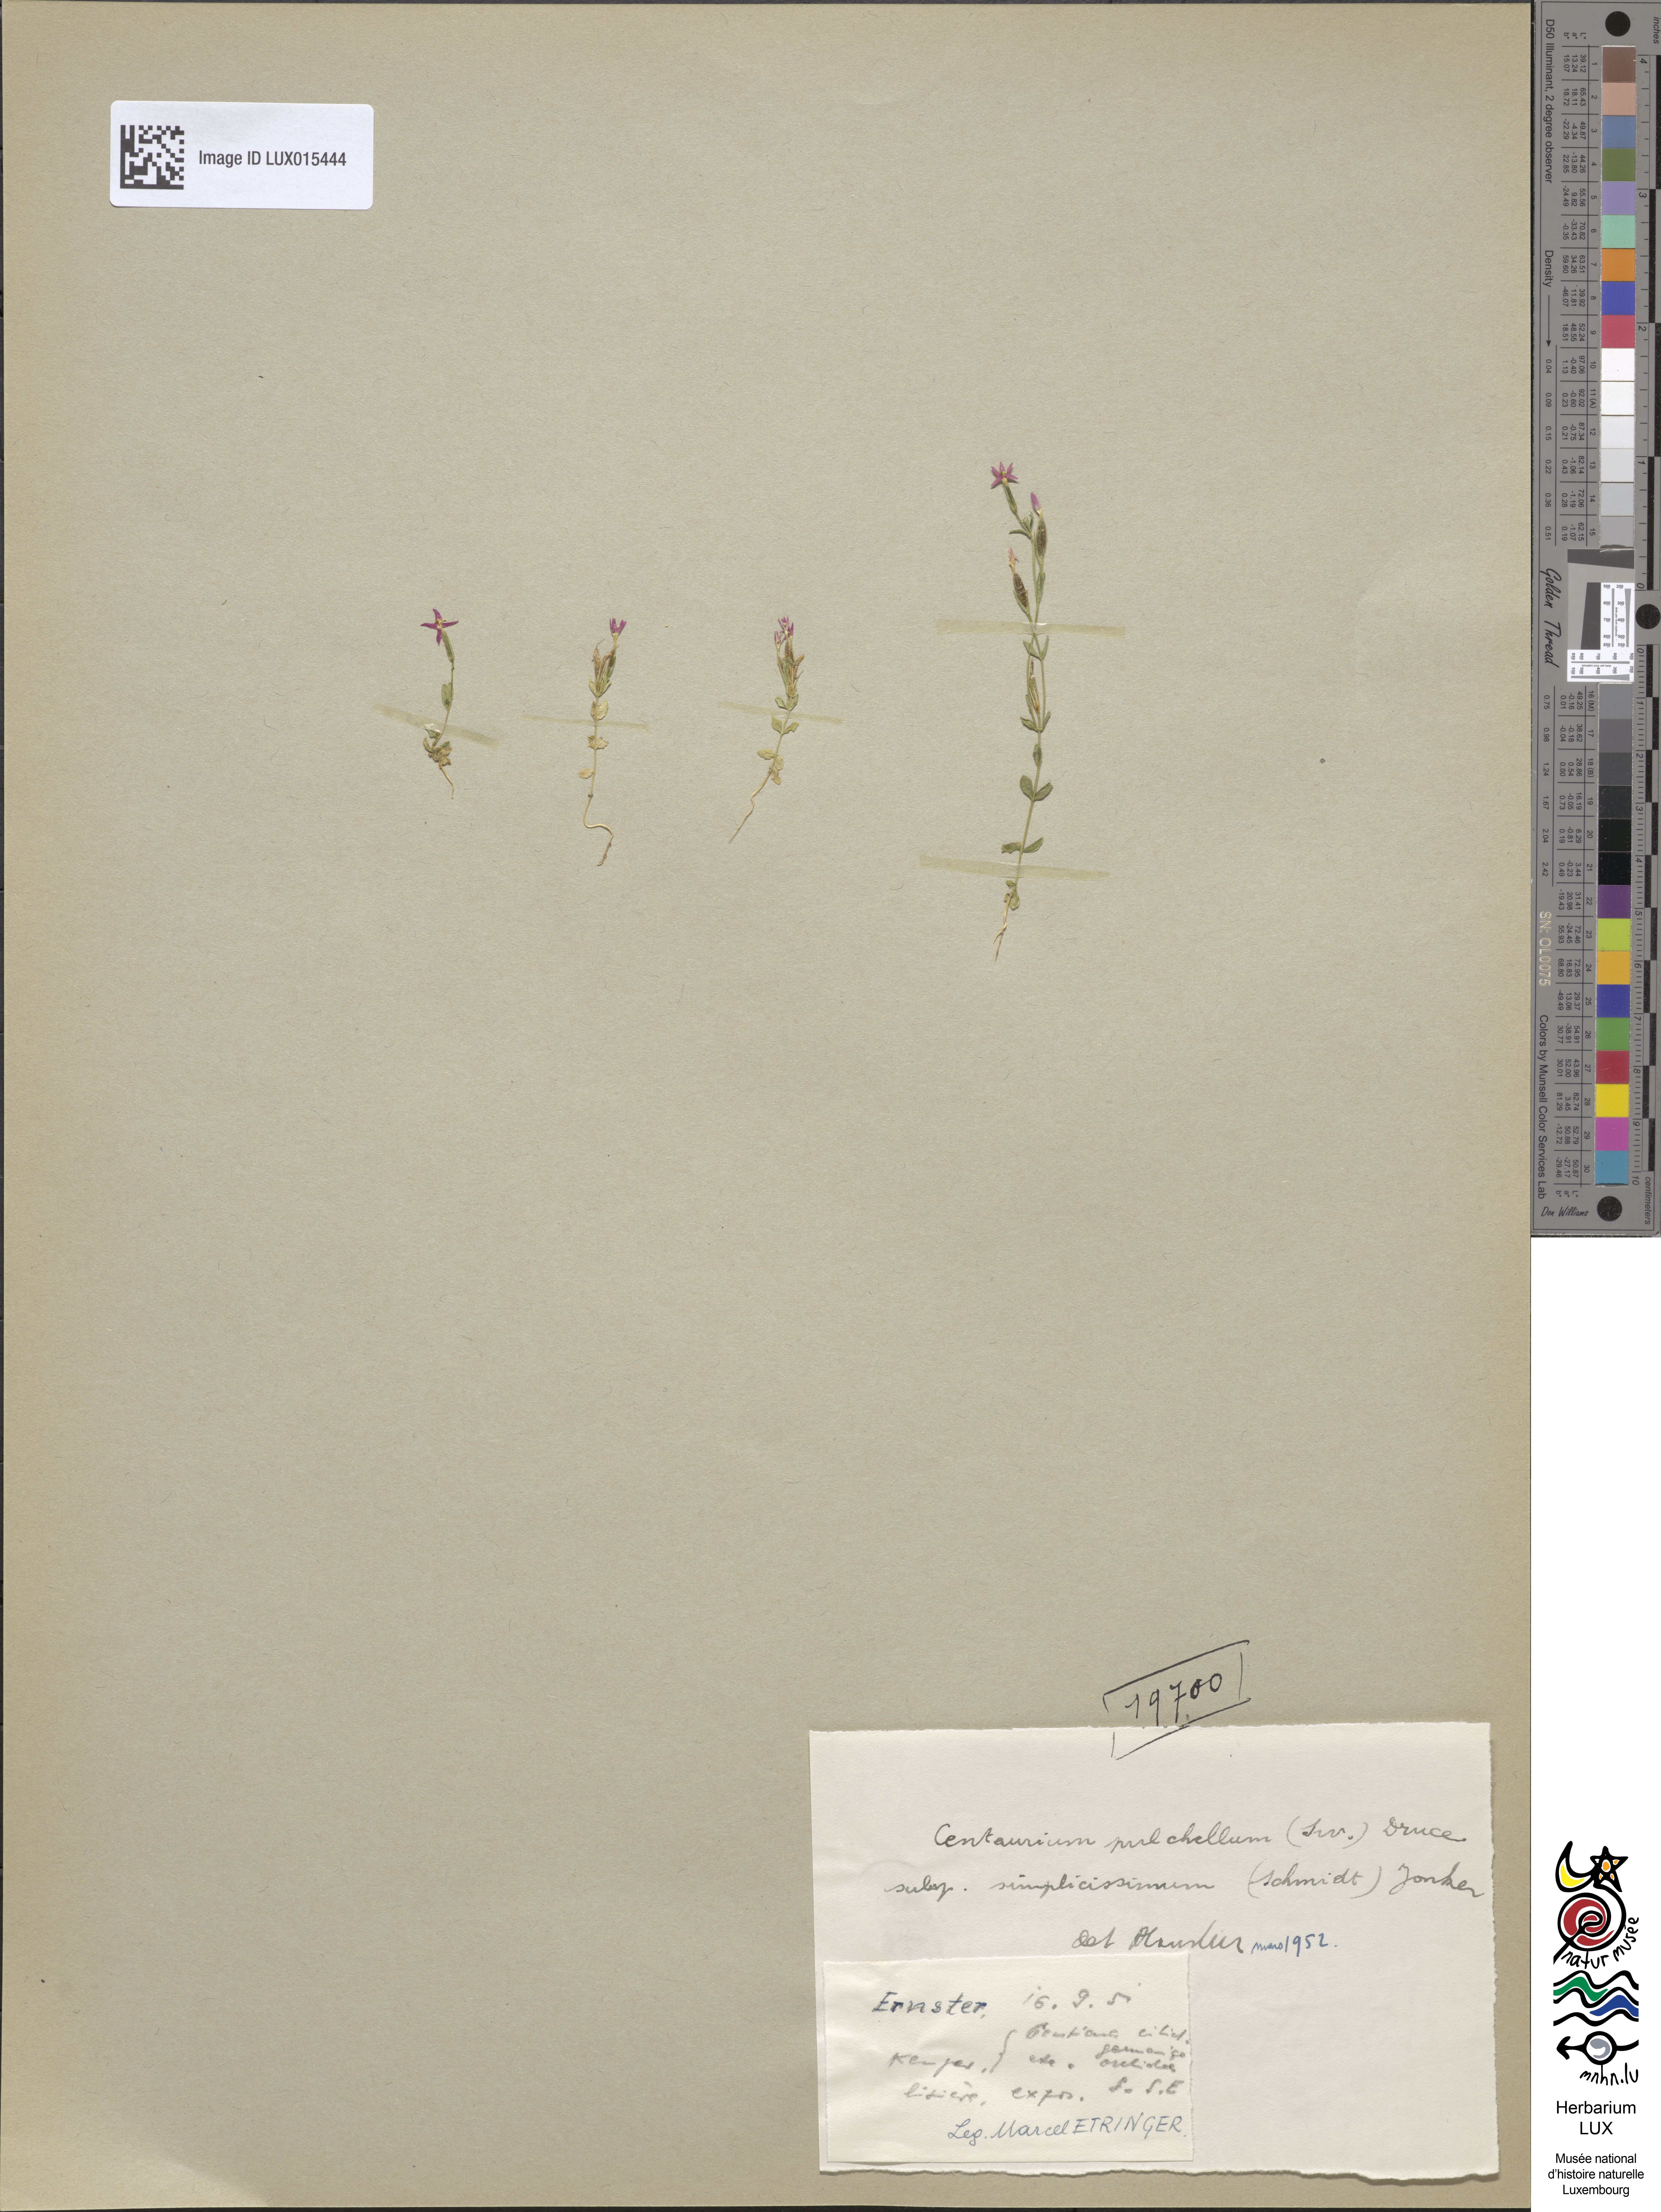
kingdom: Plantae
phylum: Tracheophyta
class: Magnoliopsida
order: Gentianales
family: Gentianaceae
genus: Centaurium
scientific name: Centaurium pulchellum
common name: Lesser centaury
